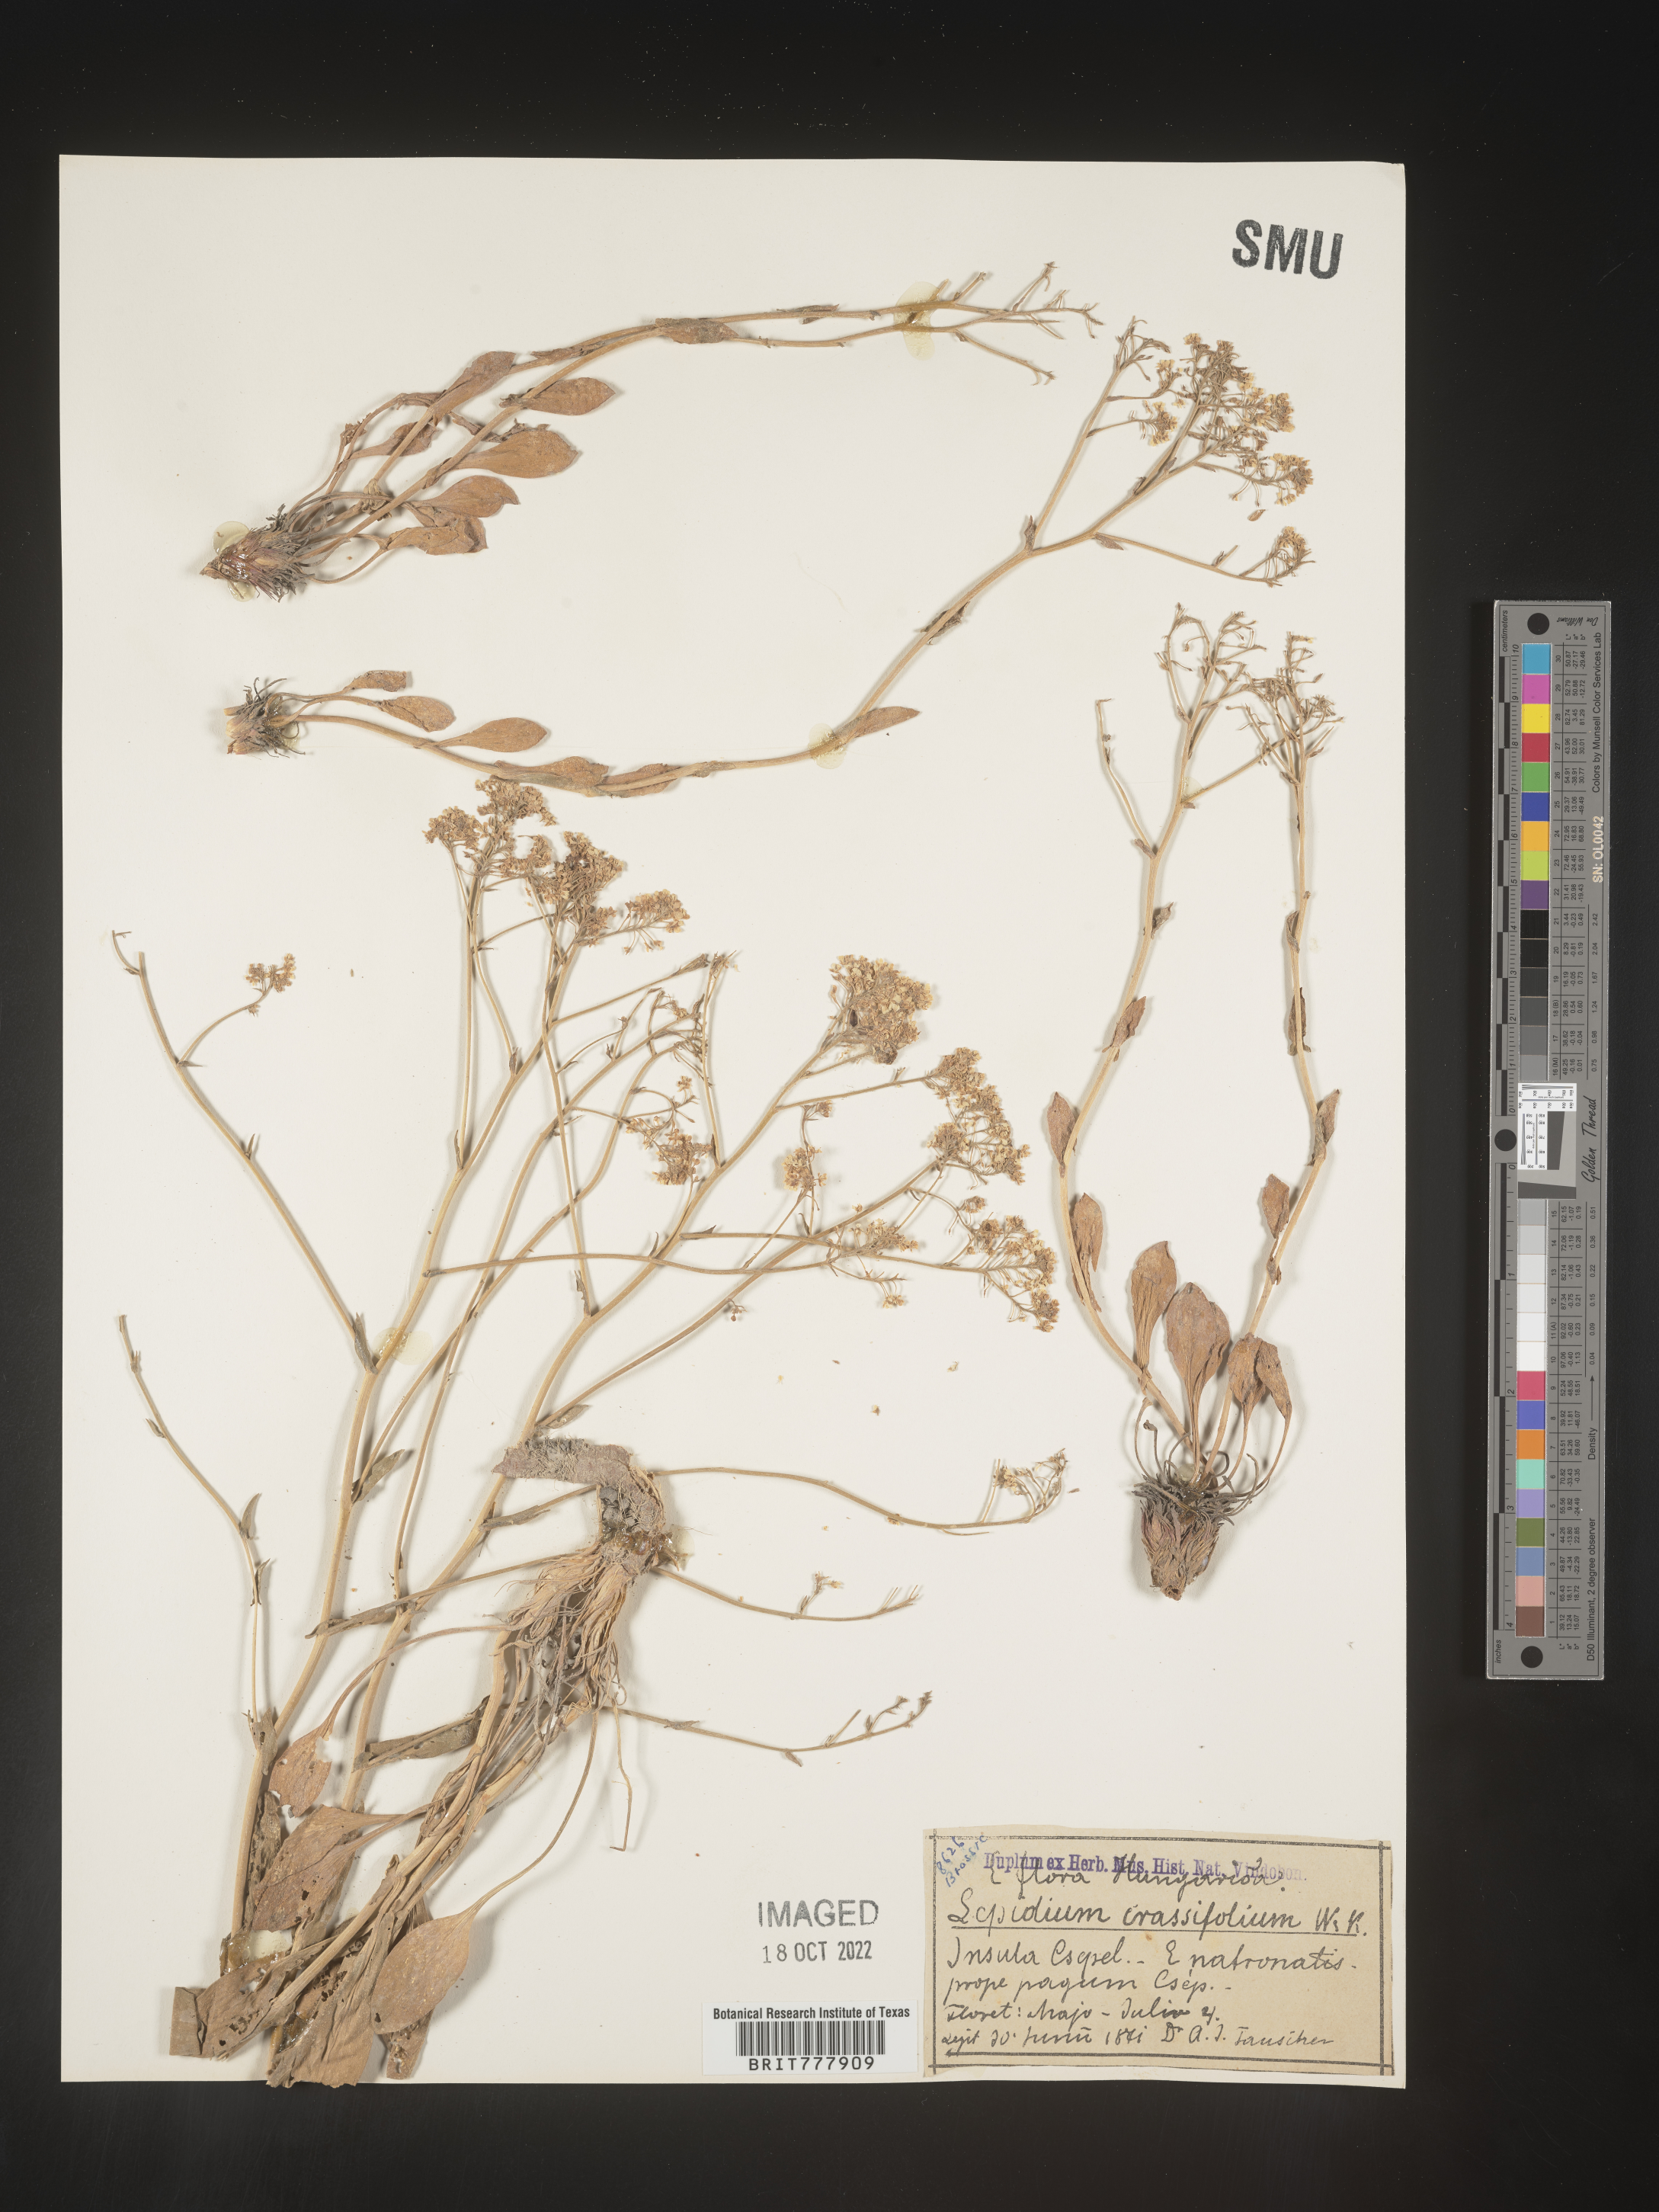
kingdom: Plantae
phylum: Tracheophyta
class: Magnoliopsida
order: Brassicales
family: Brassicaceae
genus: Lepidium
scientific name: Lepidium
